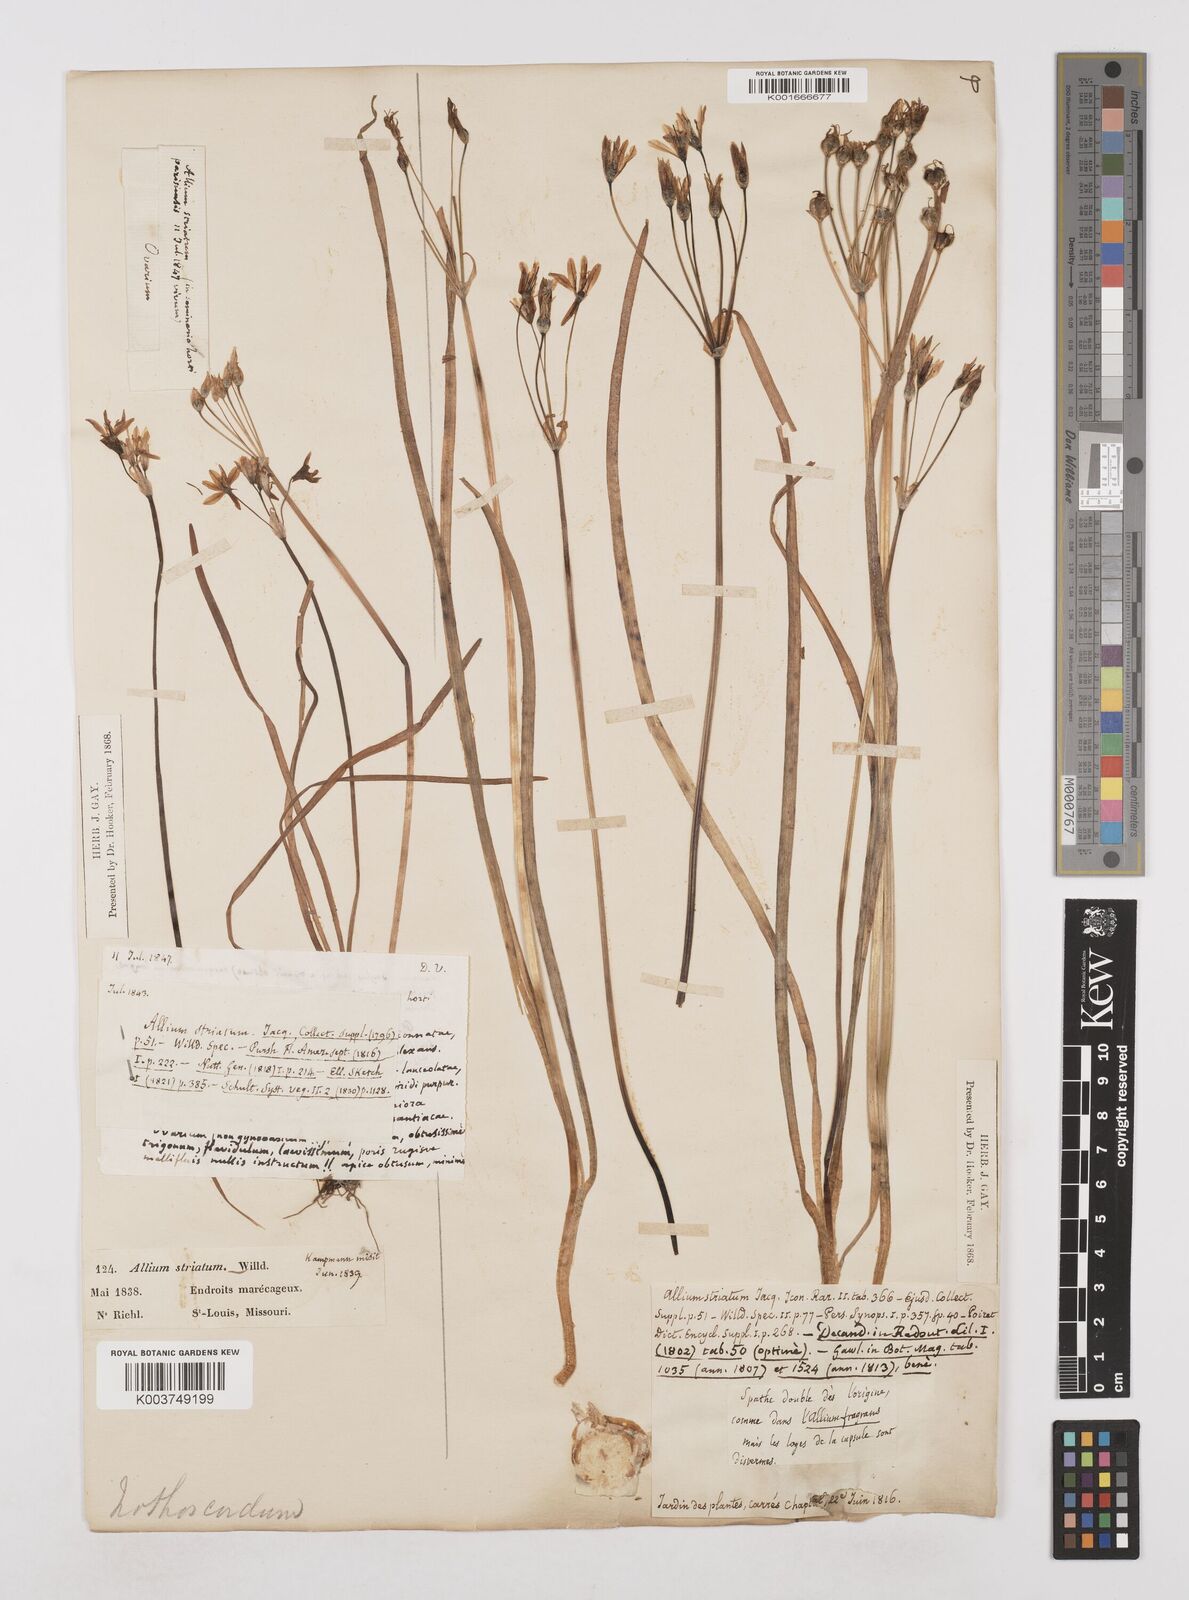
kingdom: Plantae
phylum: Tracheophyta
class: Liliopsida
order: Asparagales
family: Amaryllidaceae
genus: Nothoscordum
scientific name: Nothoscordum bivalve
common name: Crow-poison
